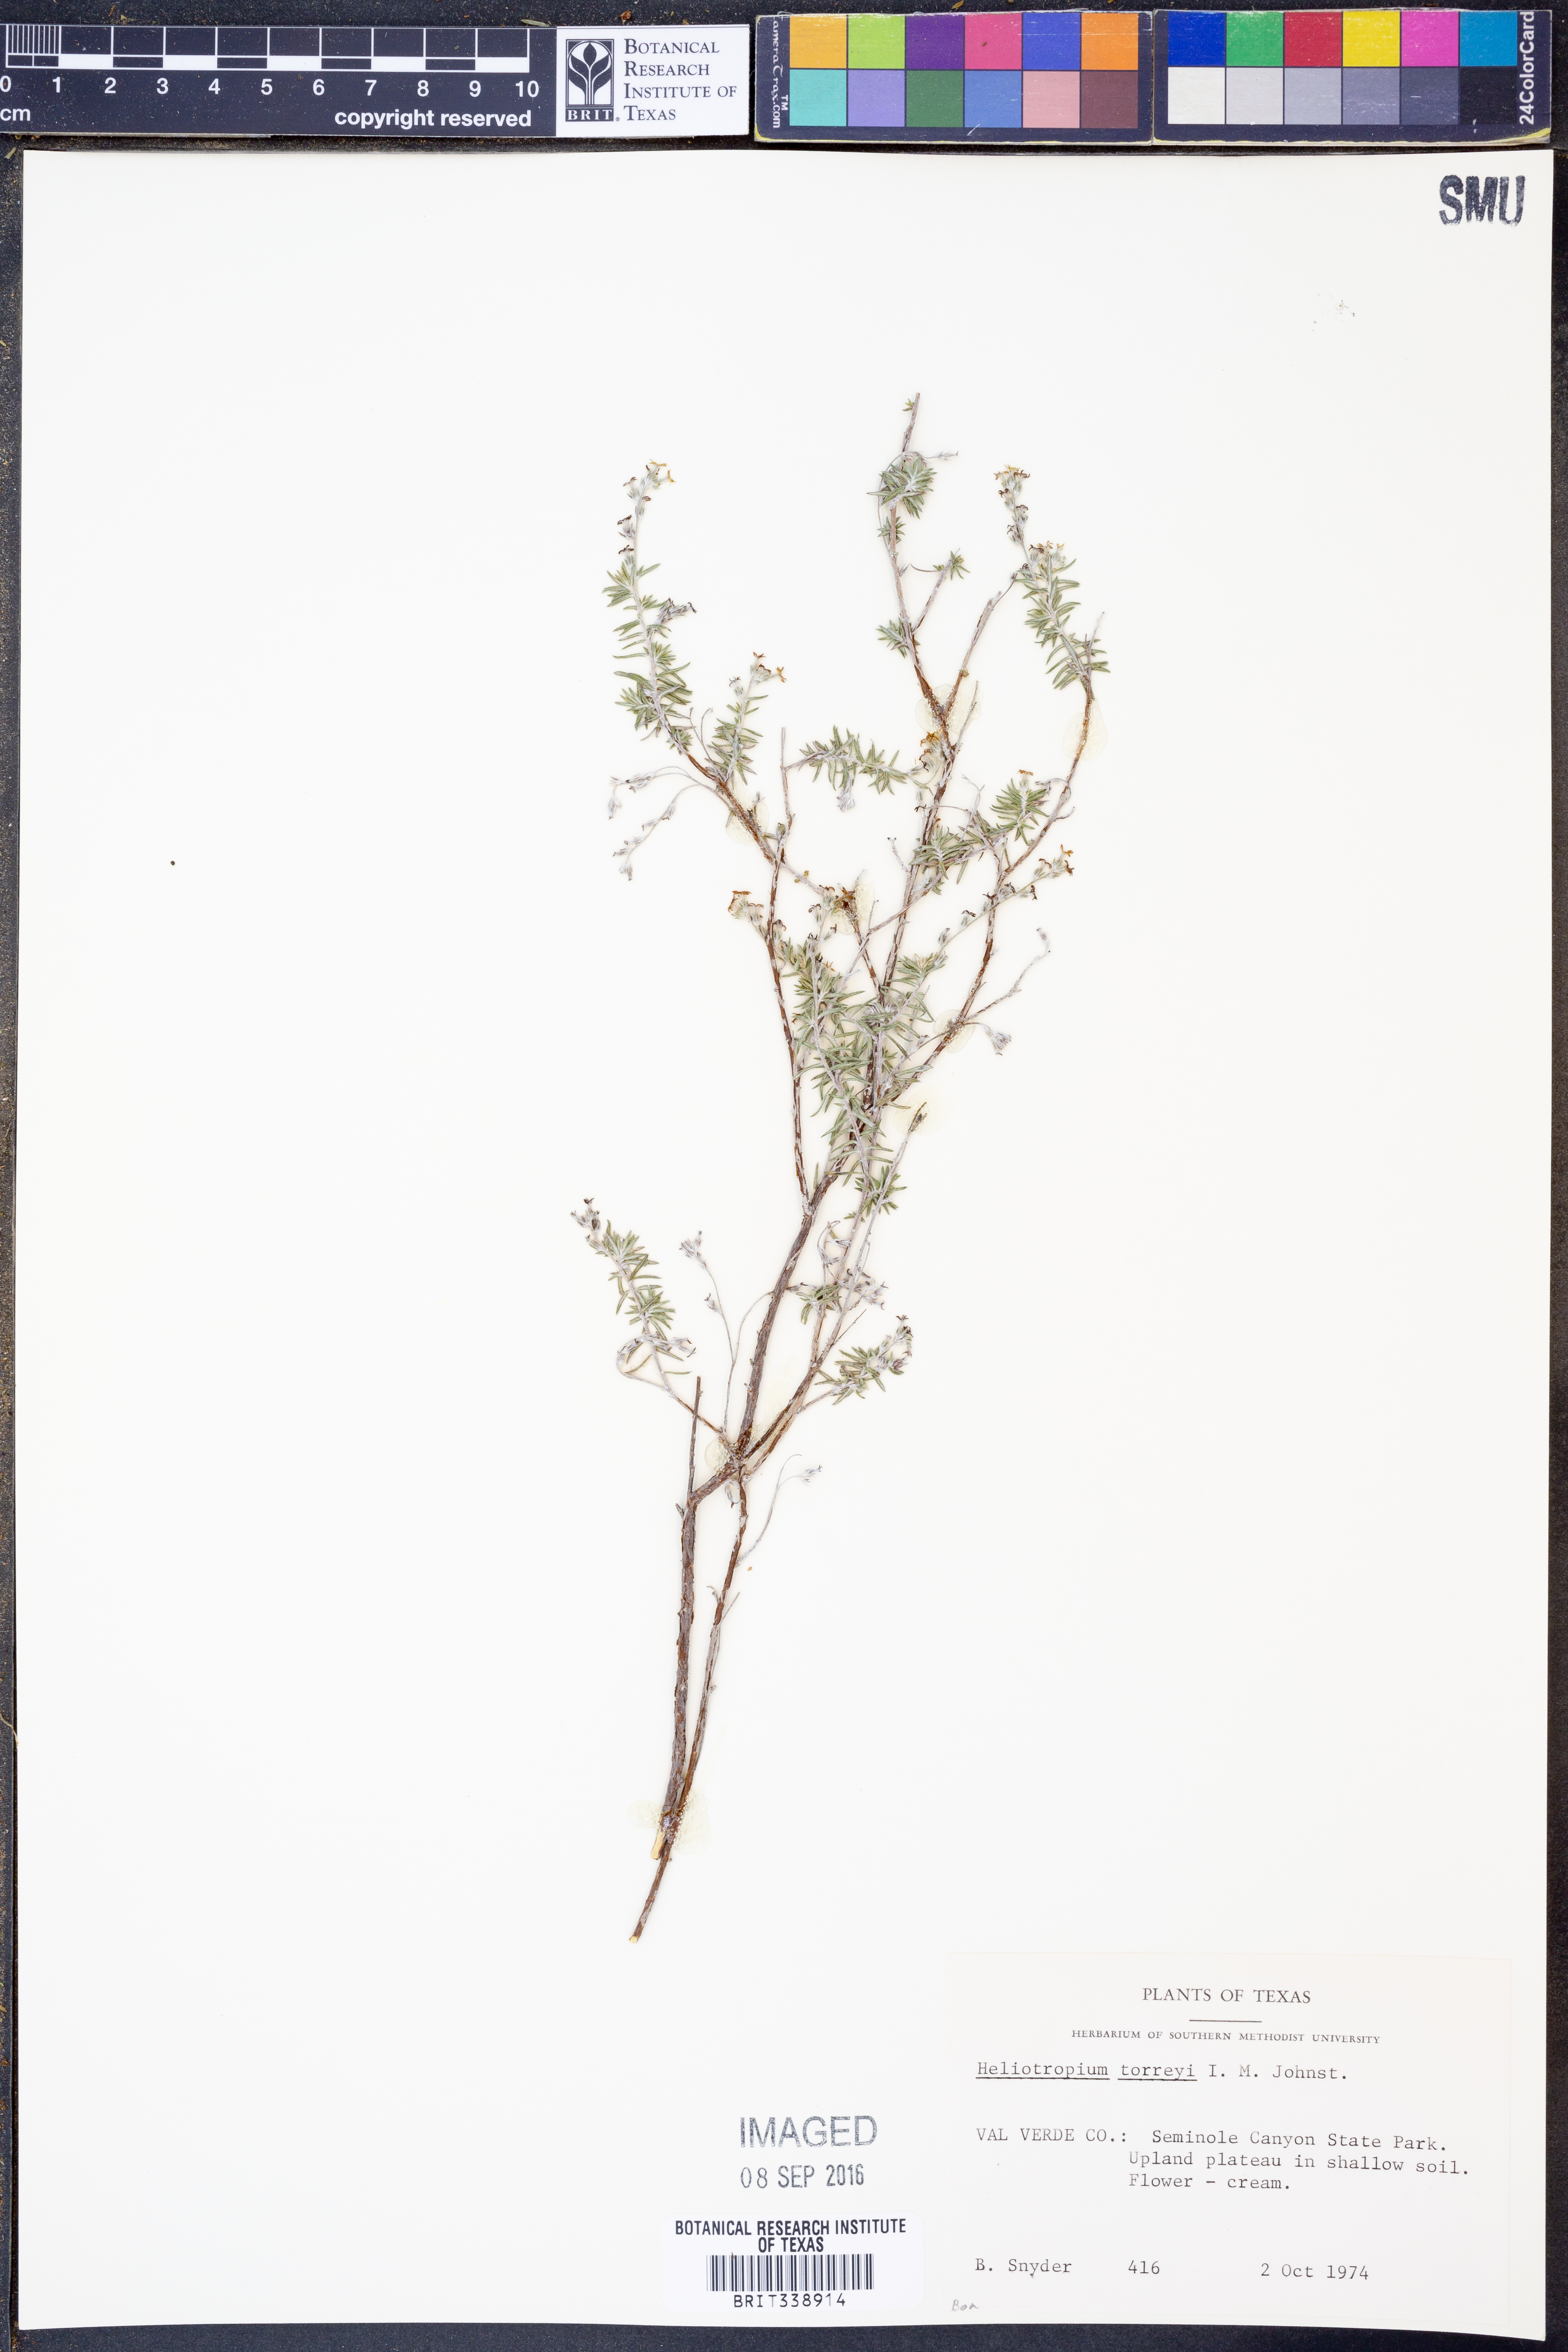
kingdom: Plantae
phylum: Tracheophyta
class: Magnoliopsida
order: Boraginales
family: Heliotropiaceae
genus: Euploca
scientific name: Euploca torreyi
